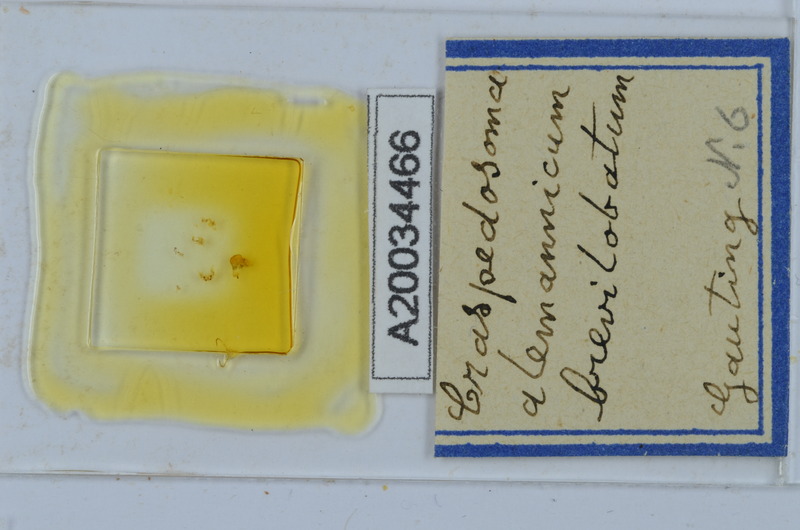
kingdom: Animalia
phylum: Arthropoda
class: Diplopoda
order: Chordeumatida
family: Craspedosomatidae
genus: Craspedosoma
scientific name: Craspedosoma alemannicum
